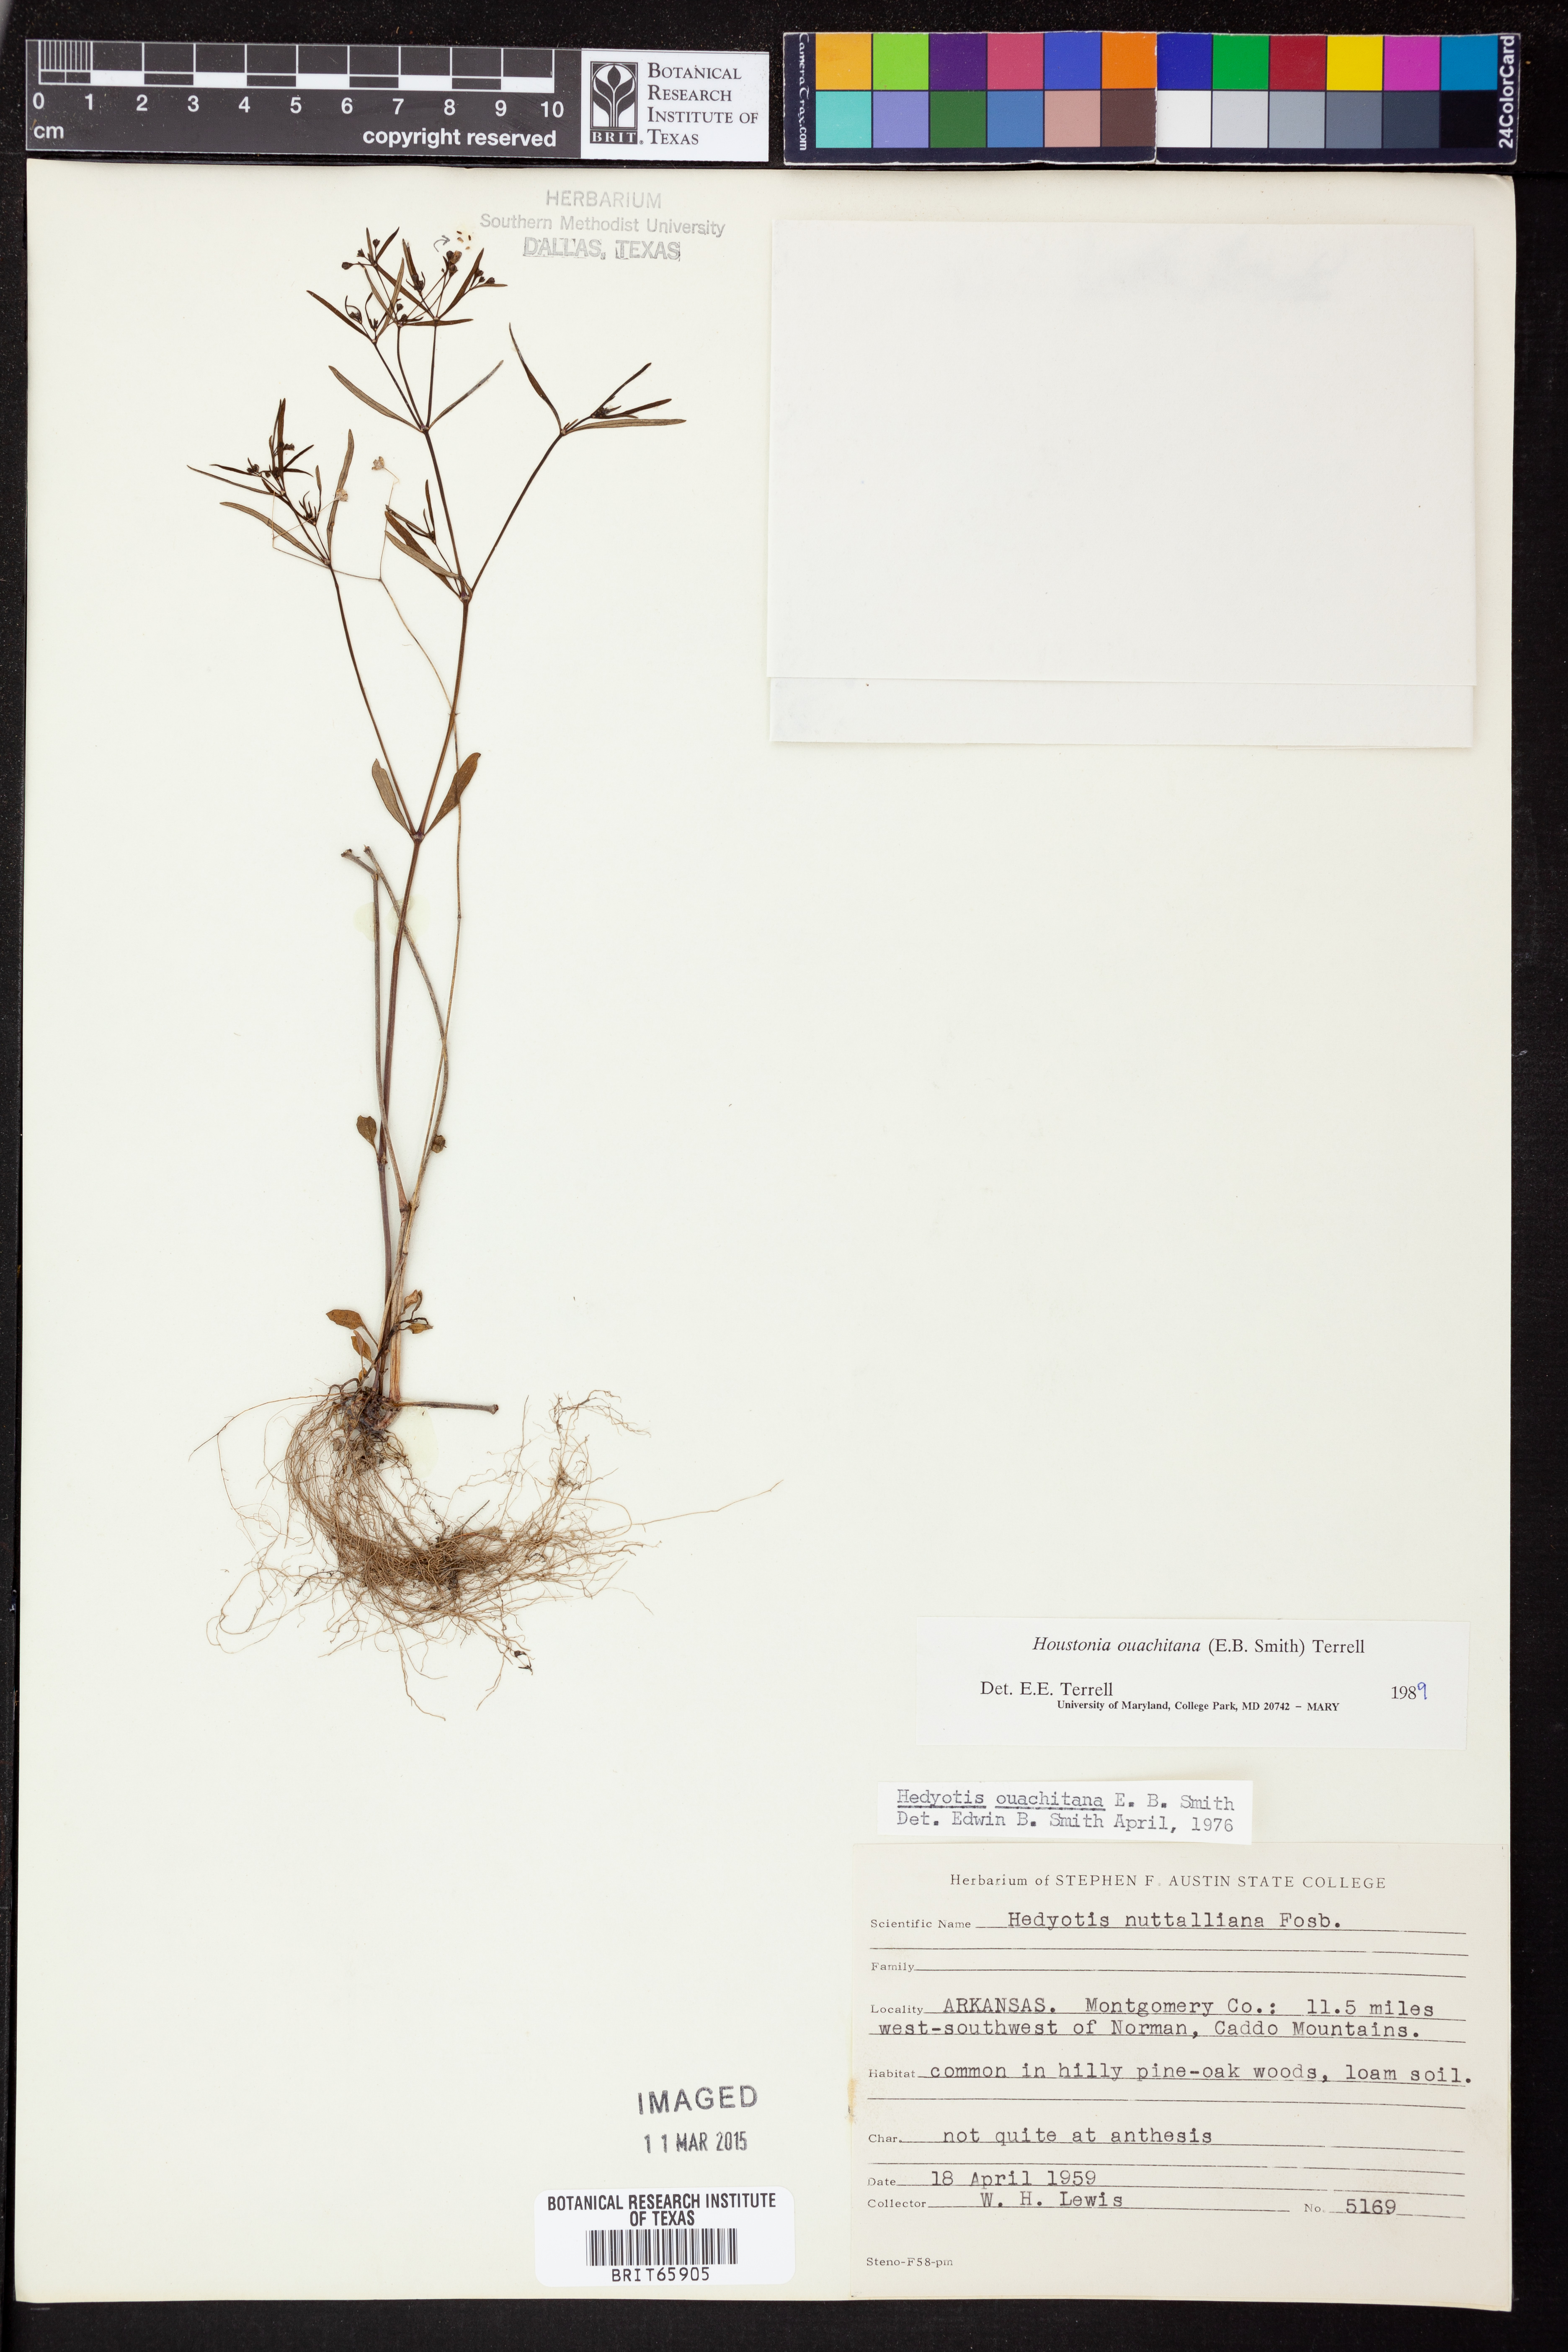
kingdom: Plantae
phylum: Tracheophyta
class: Magnoliopsida
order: Gentianales
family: Rubiaceae
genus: Houstonia
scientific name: Houstonia ouachitana
